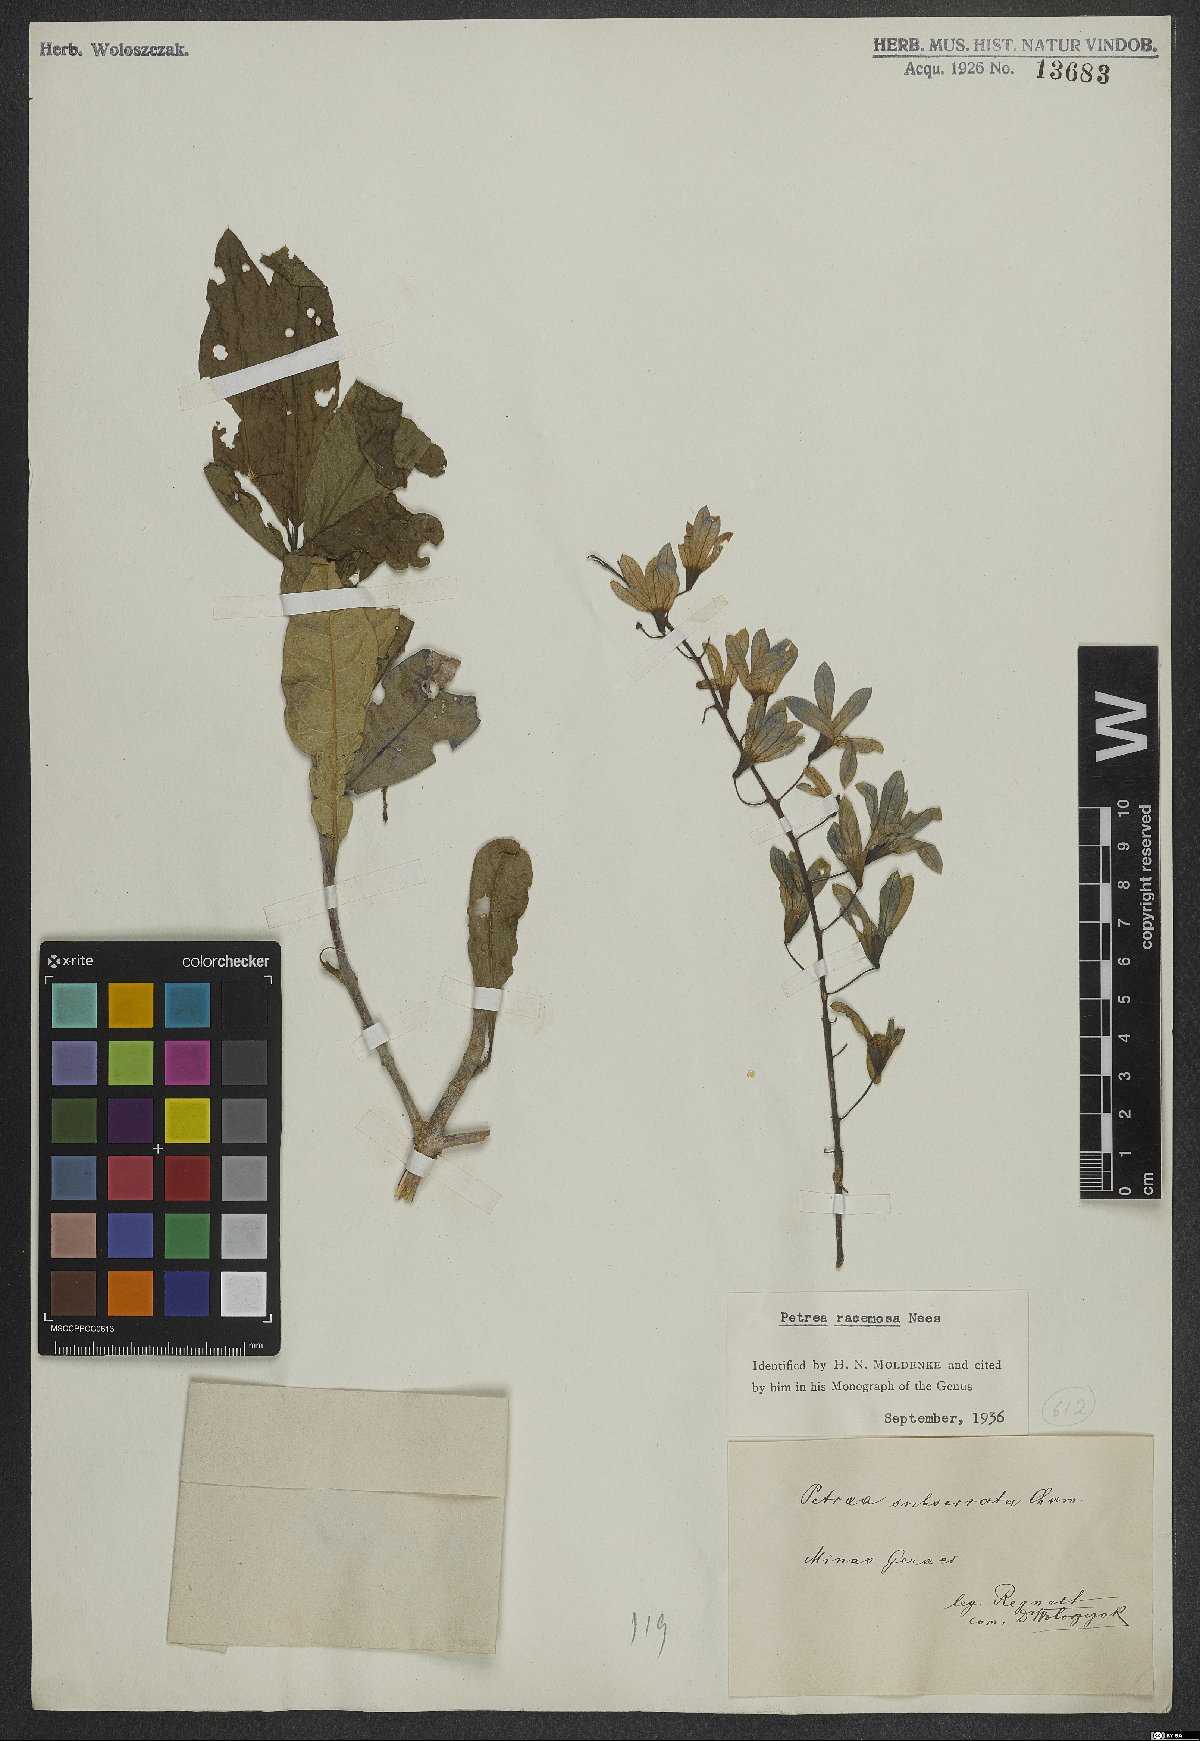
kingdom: Plantae
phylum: Tracheophyta
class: Magnoliopsida
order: Lamiales
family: Verbenaceae
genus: Petrea
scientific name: Petrea volubilis
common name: Queen's-wreath
